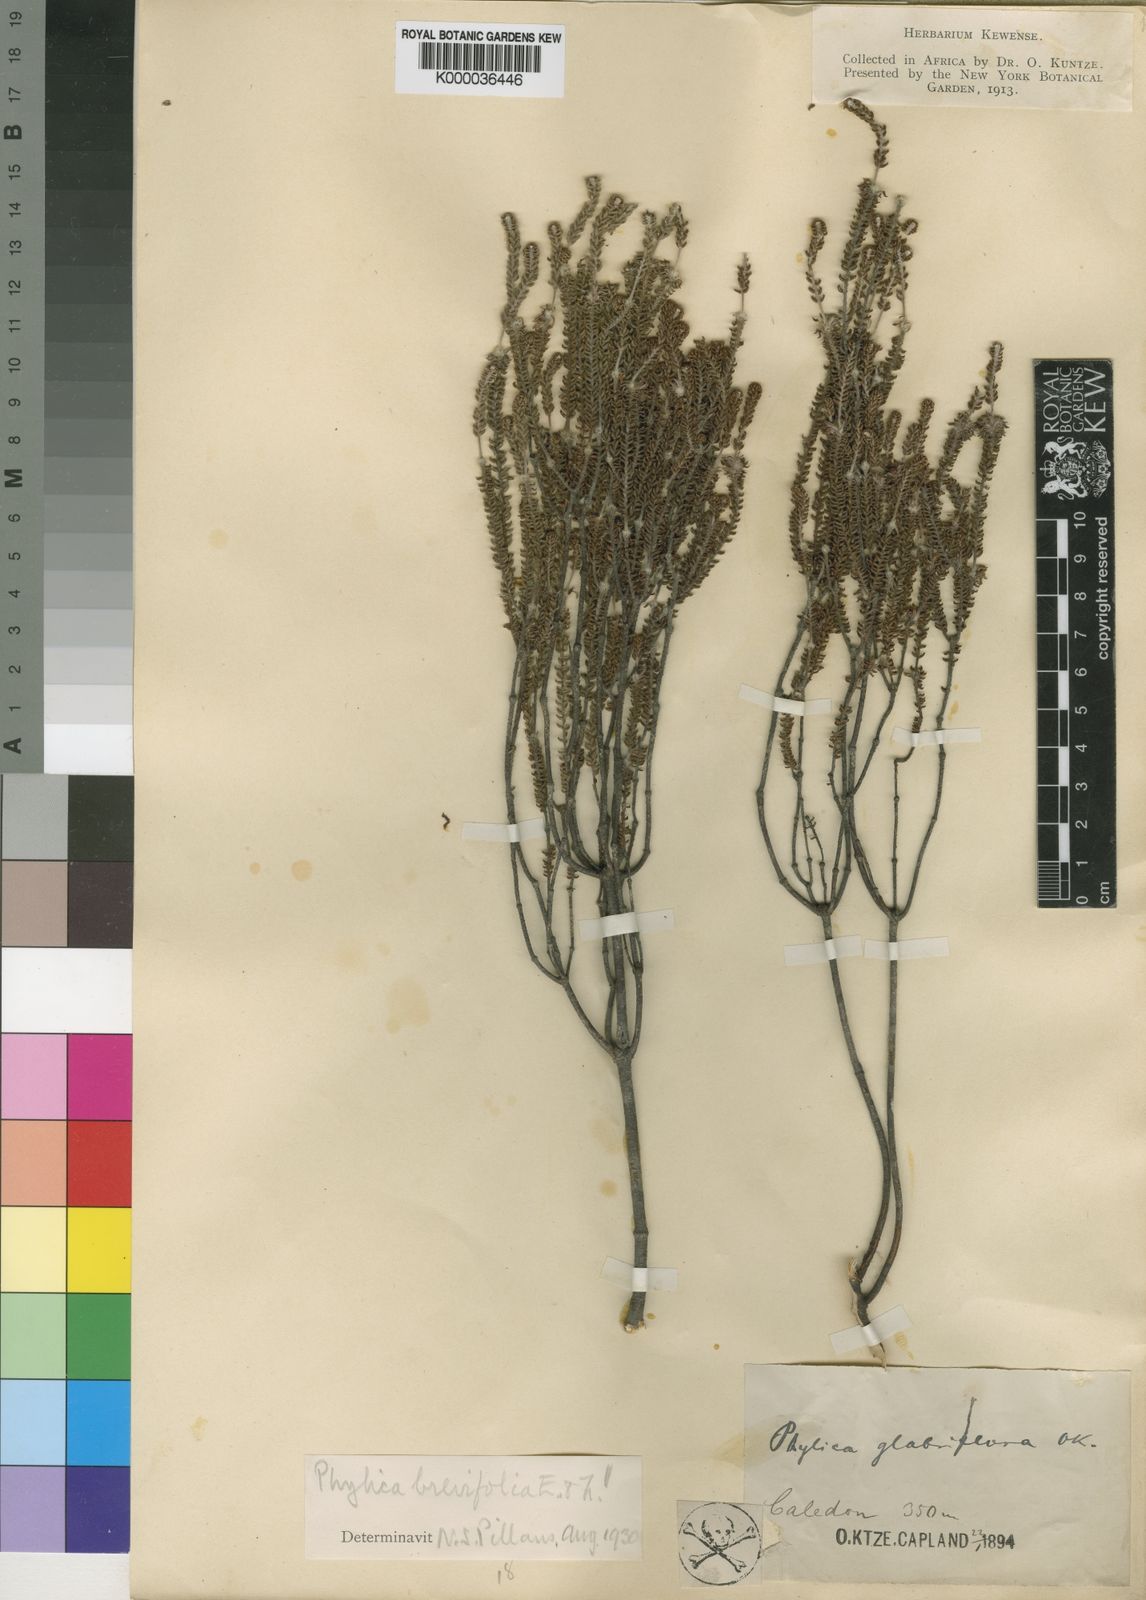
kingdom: Plantae
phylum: Tracheophyta
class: Magnoliopsida
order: Rosales
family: Rhamnaceae
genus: Phylica
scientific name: Phylica brevifolia
